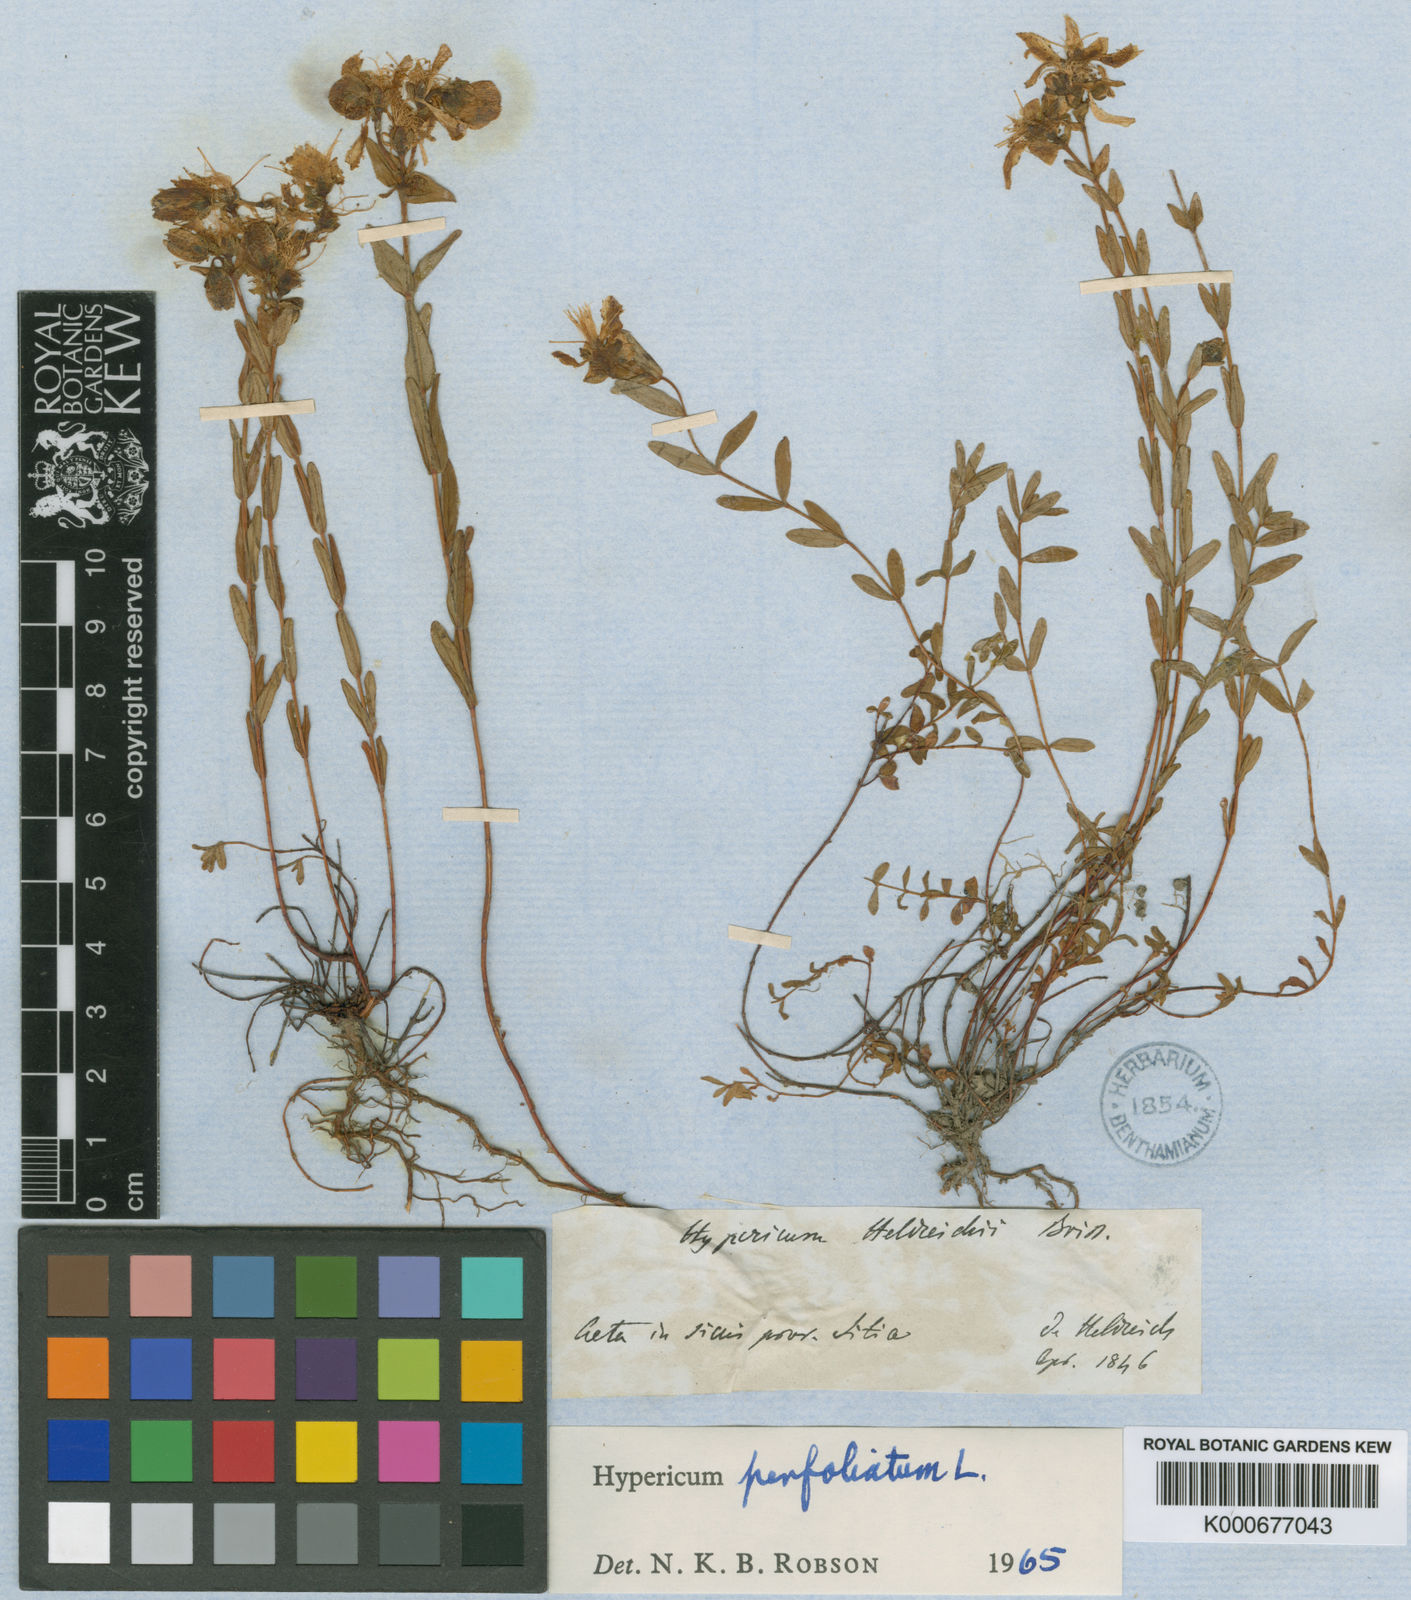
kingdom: Plantae
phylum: Tracheophyta
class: Magnoliopsida
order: Malpighiales
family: Hypericaceae
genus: Hypericum
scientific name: Hypericum perfoliatum
